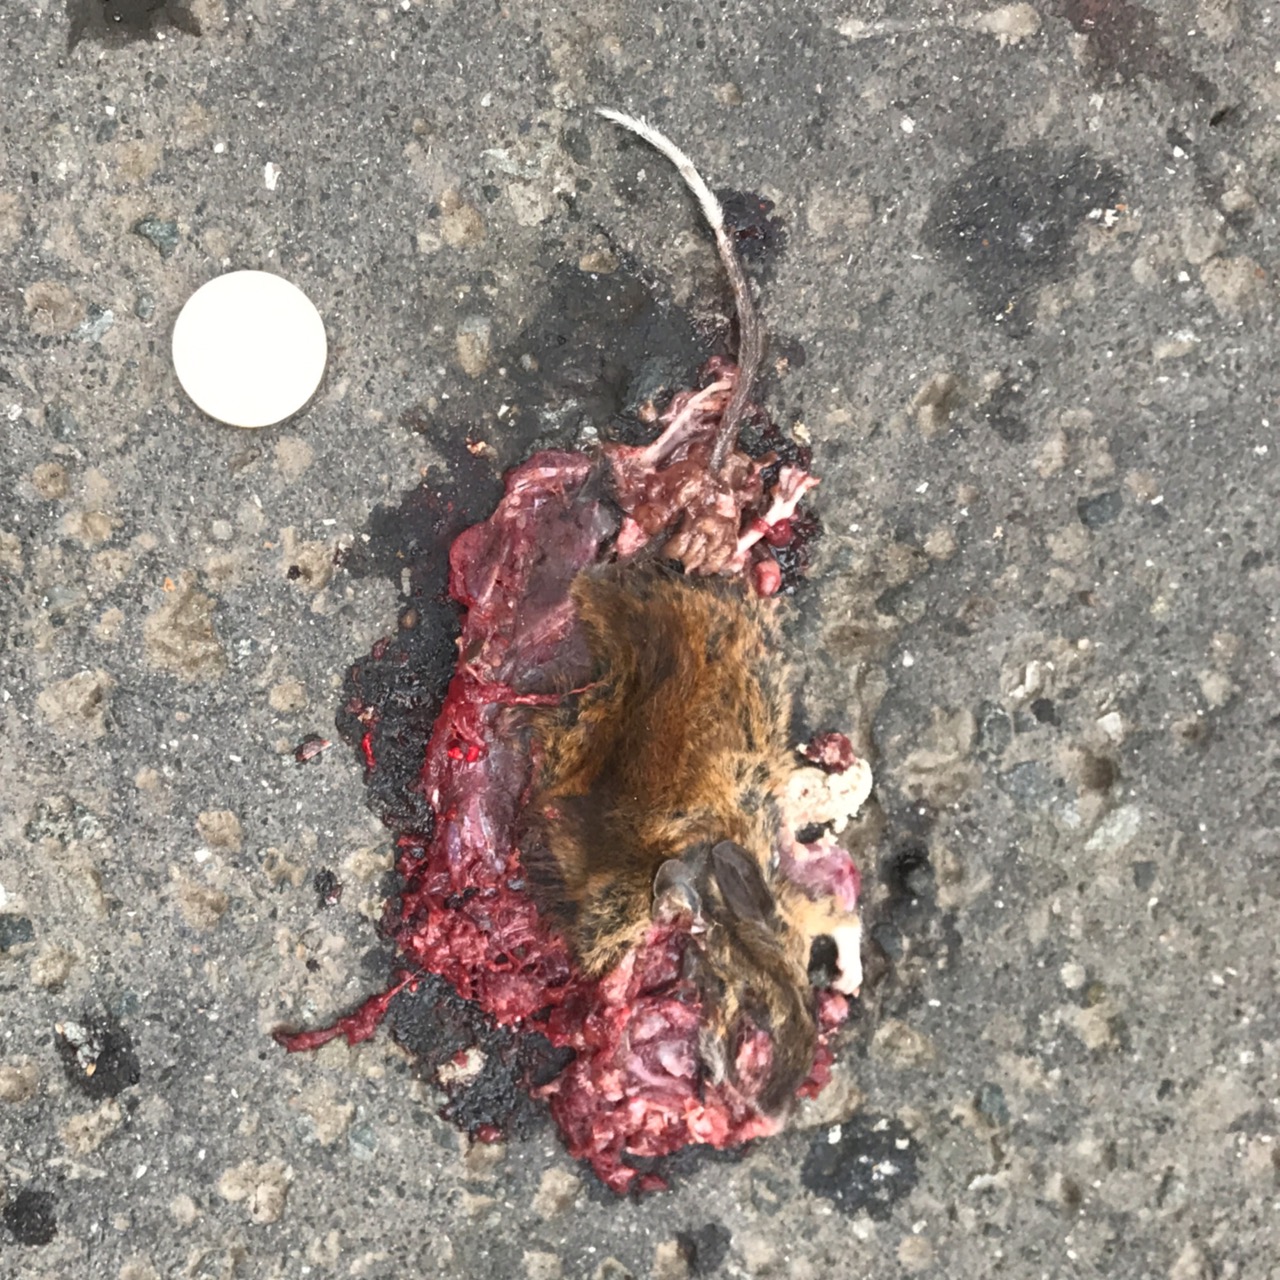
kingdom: Animalia
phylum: Chordata
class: Mammalia
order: Rodentia
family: Muridae
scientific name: Muridae
